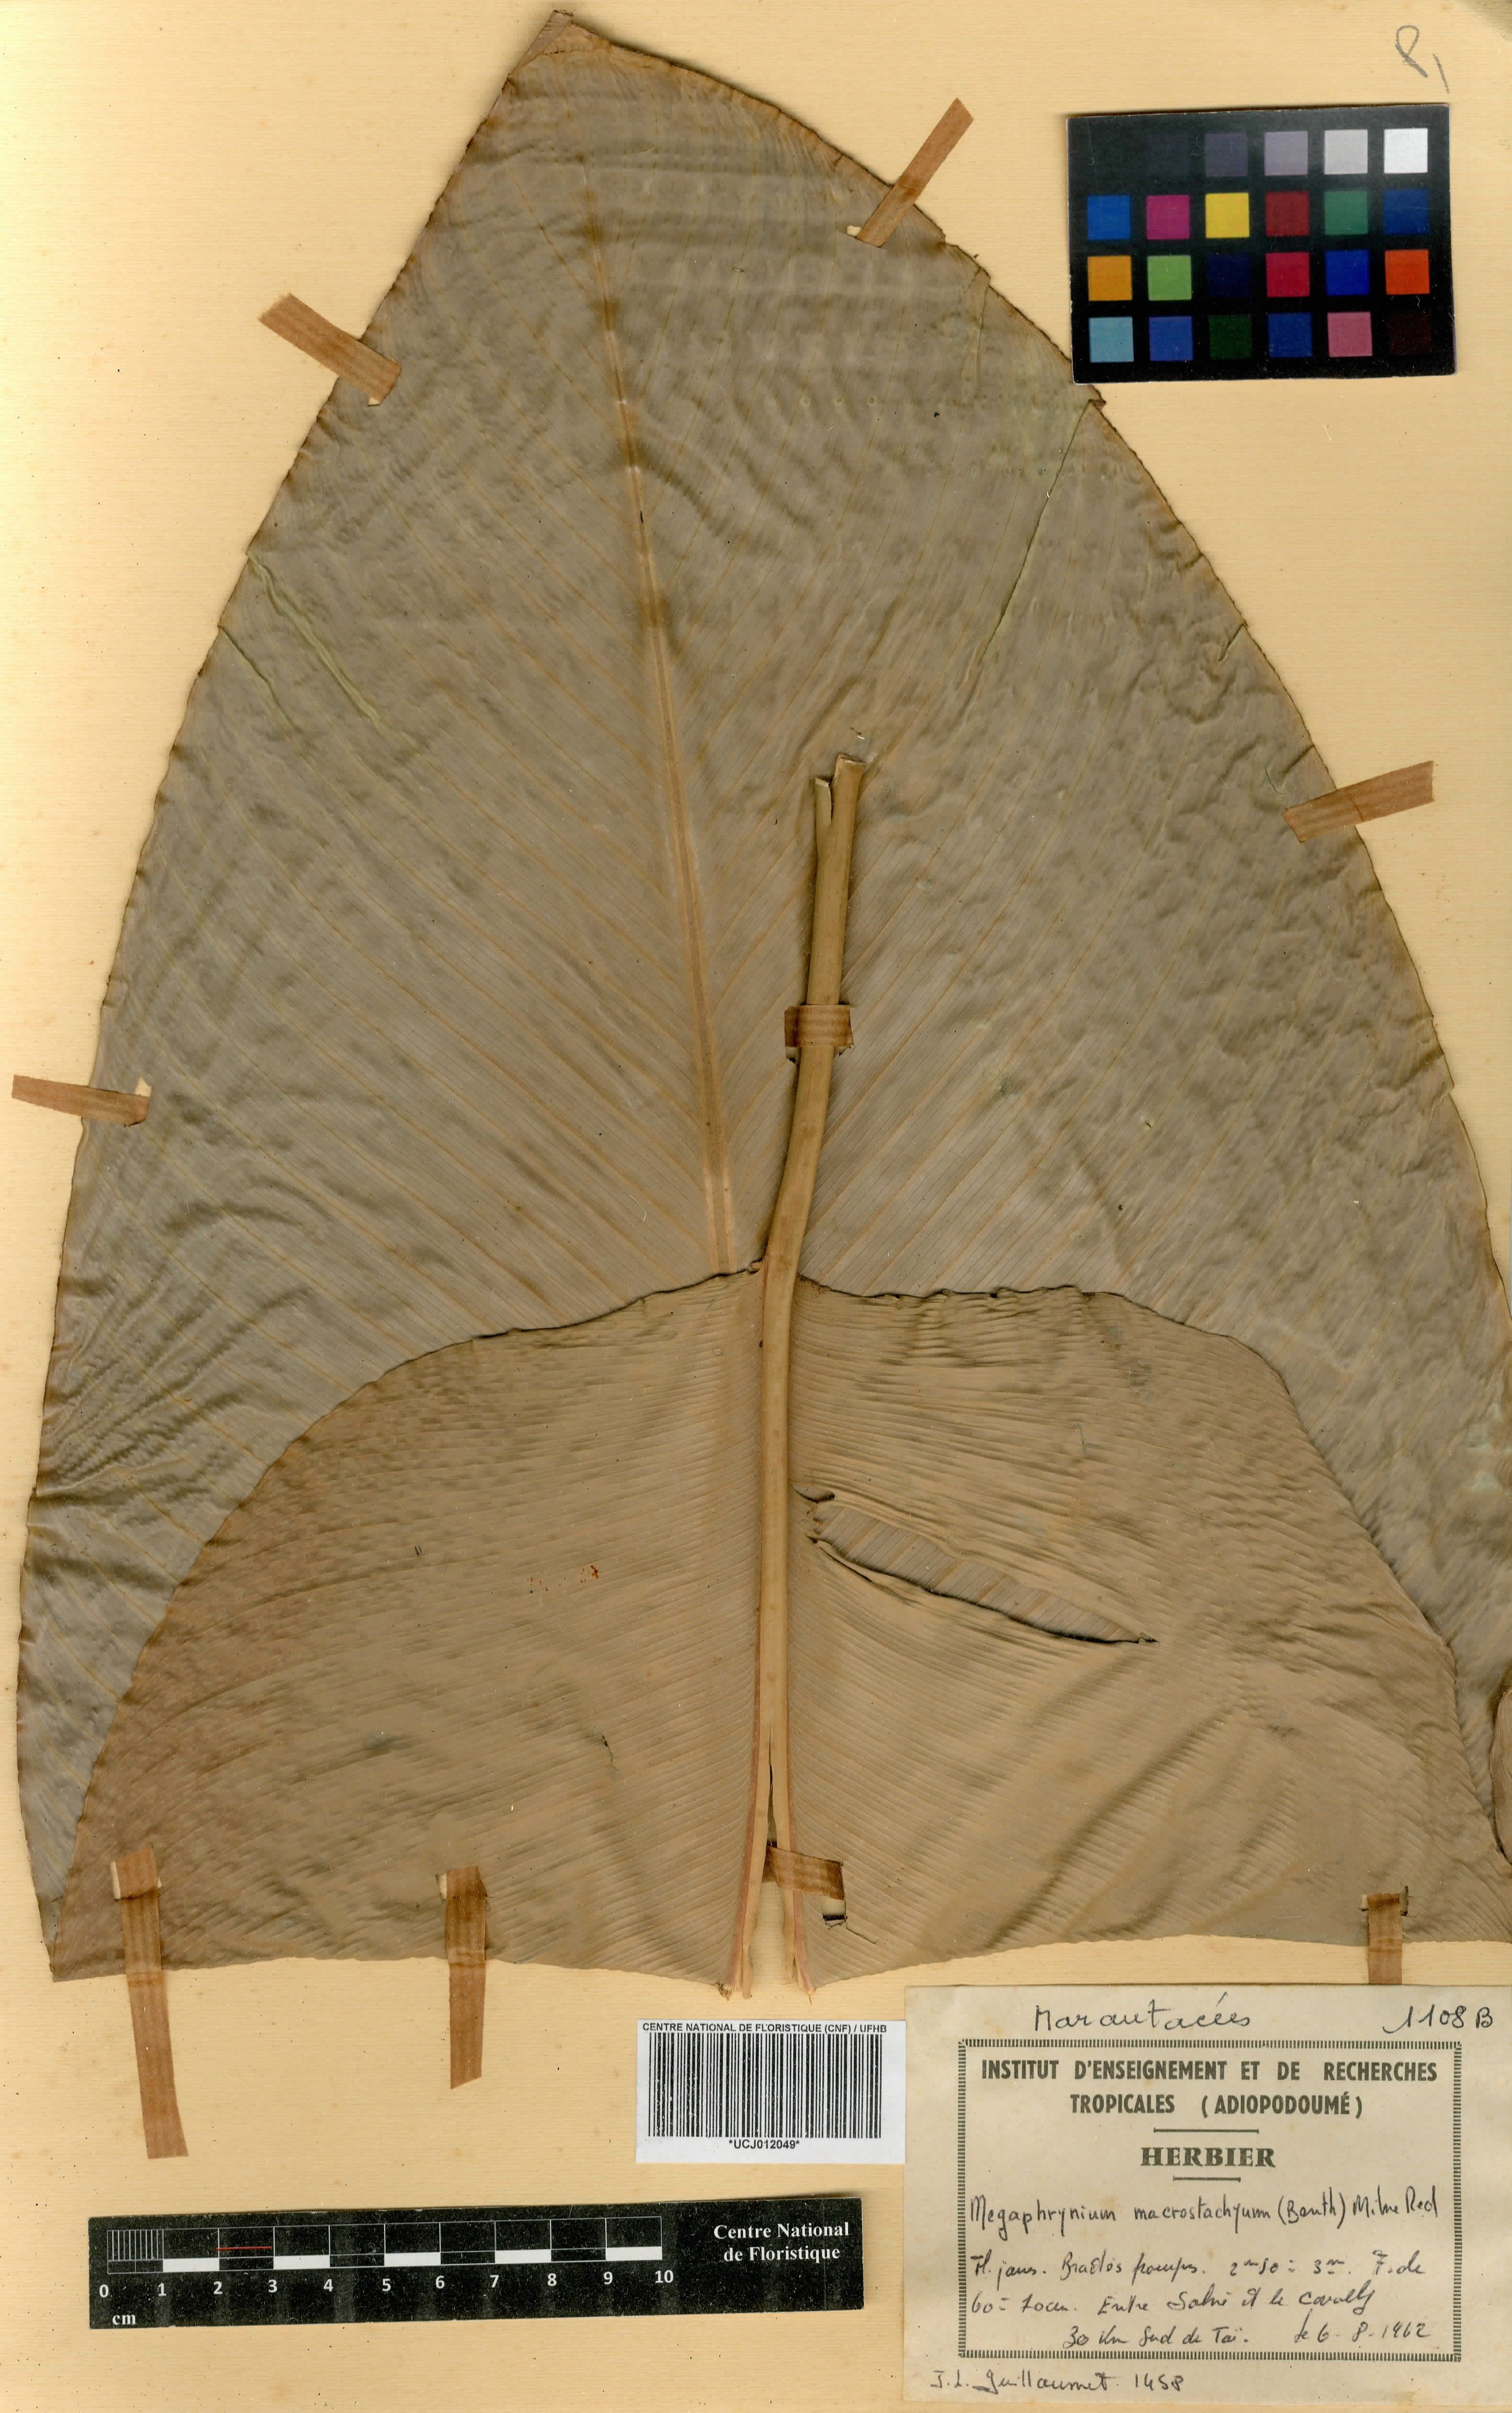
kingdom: Plantae
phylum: Tracheophyta
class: Liliopsida
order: Zingiberales
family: Marantaceae
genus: Megaphrynium
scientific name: Megaphrynium macrostachyum
